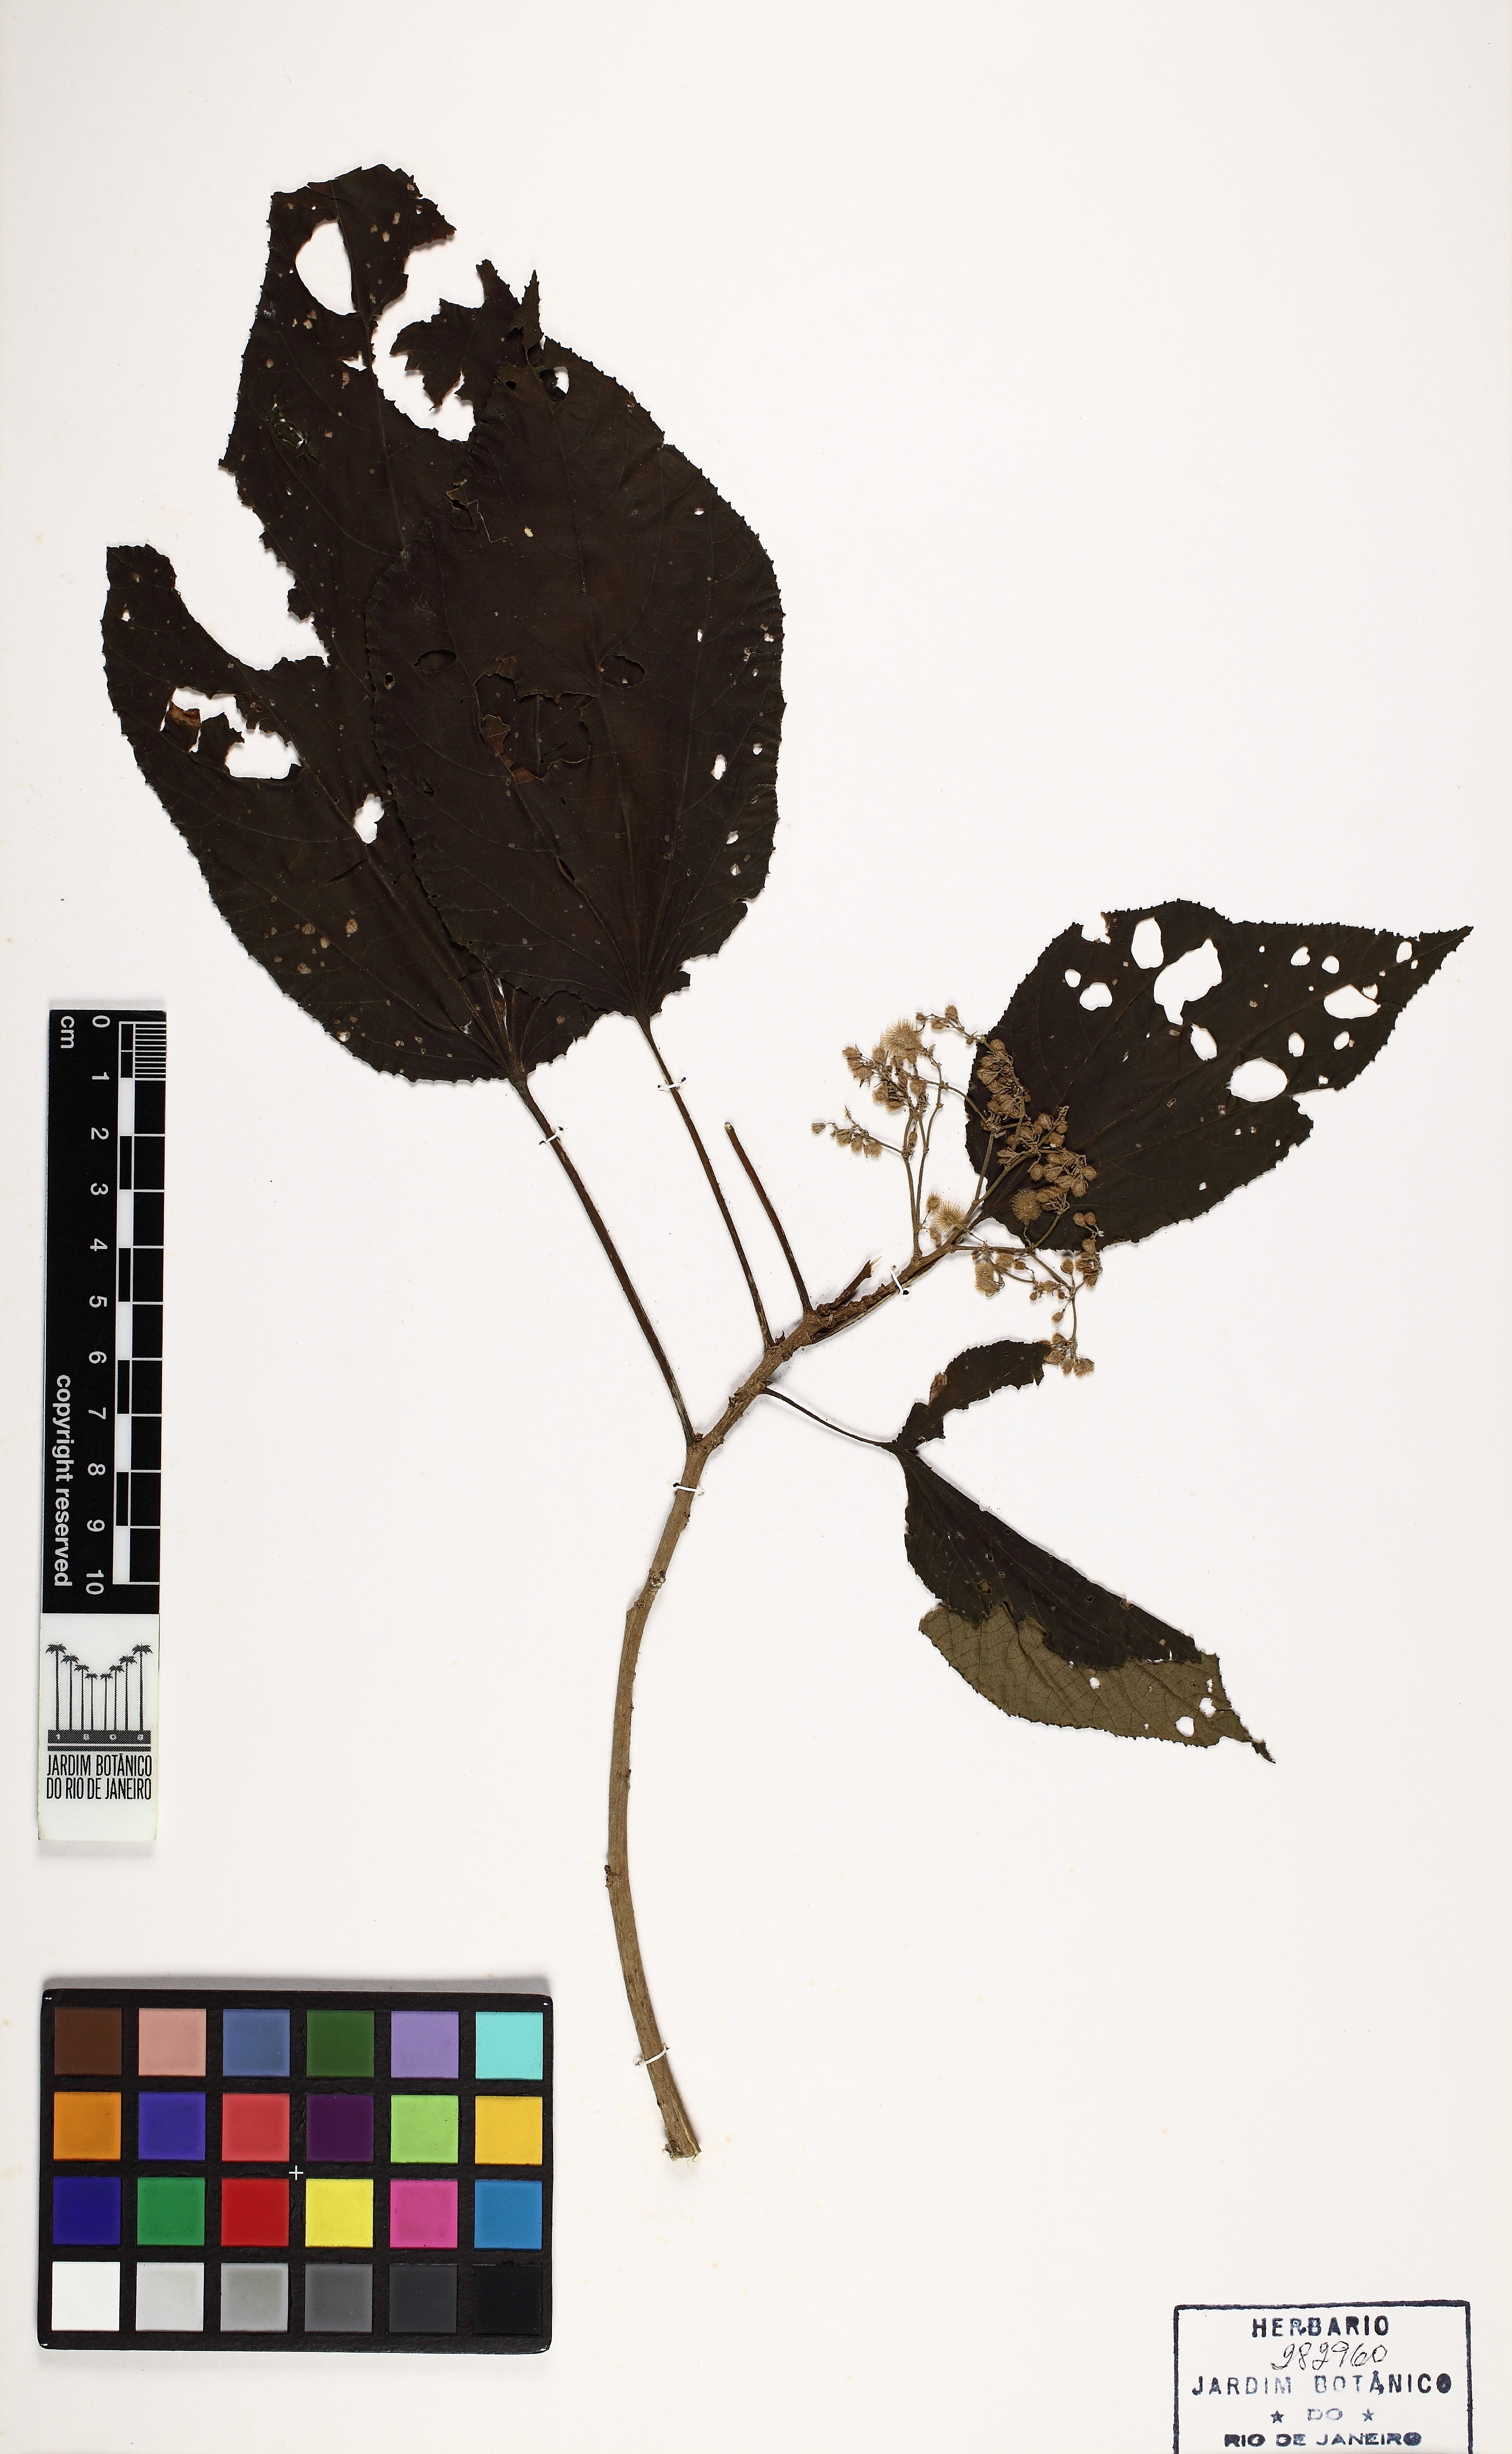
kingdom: Plantae
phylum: Tracheophyta
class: Magnoliopsida
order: Malvales
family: Malvaceae
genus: Heliocarpus
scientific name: Heliocarpus
